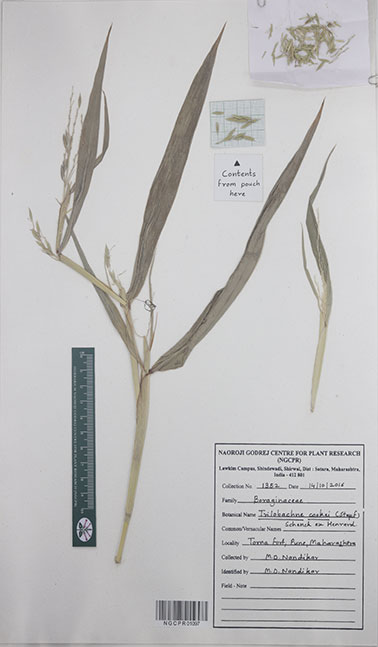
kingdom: Plantae
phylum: Tracheophyta
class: Liliopsida
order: Poales
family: Poaceae
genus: Trilobachne
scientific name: Trilobachne cookei
